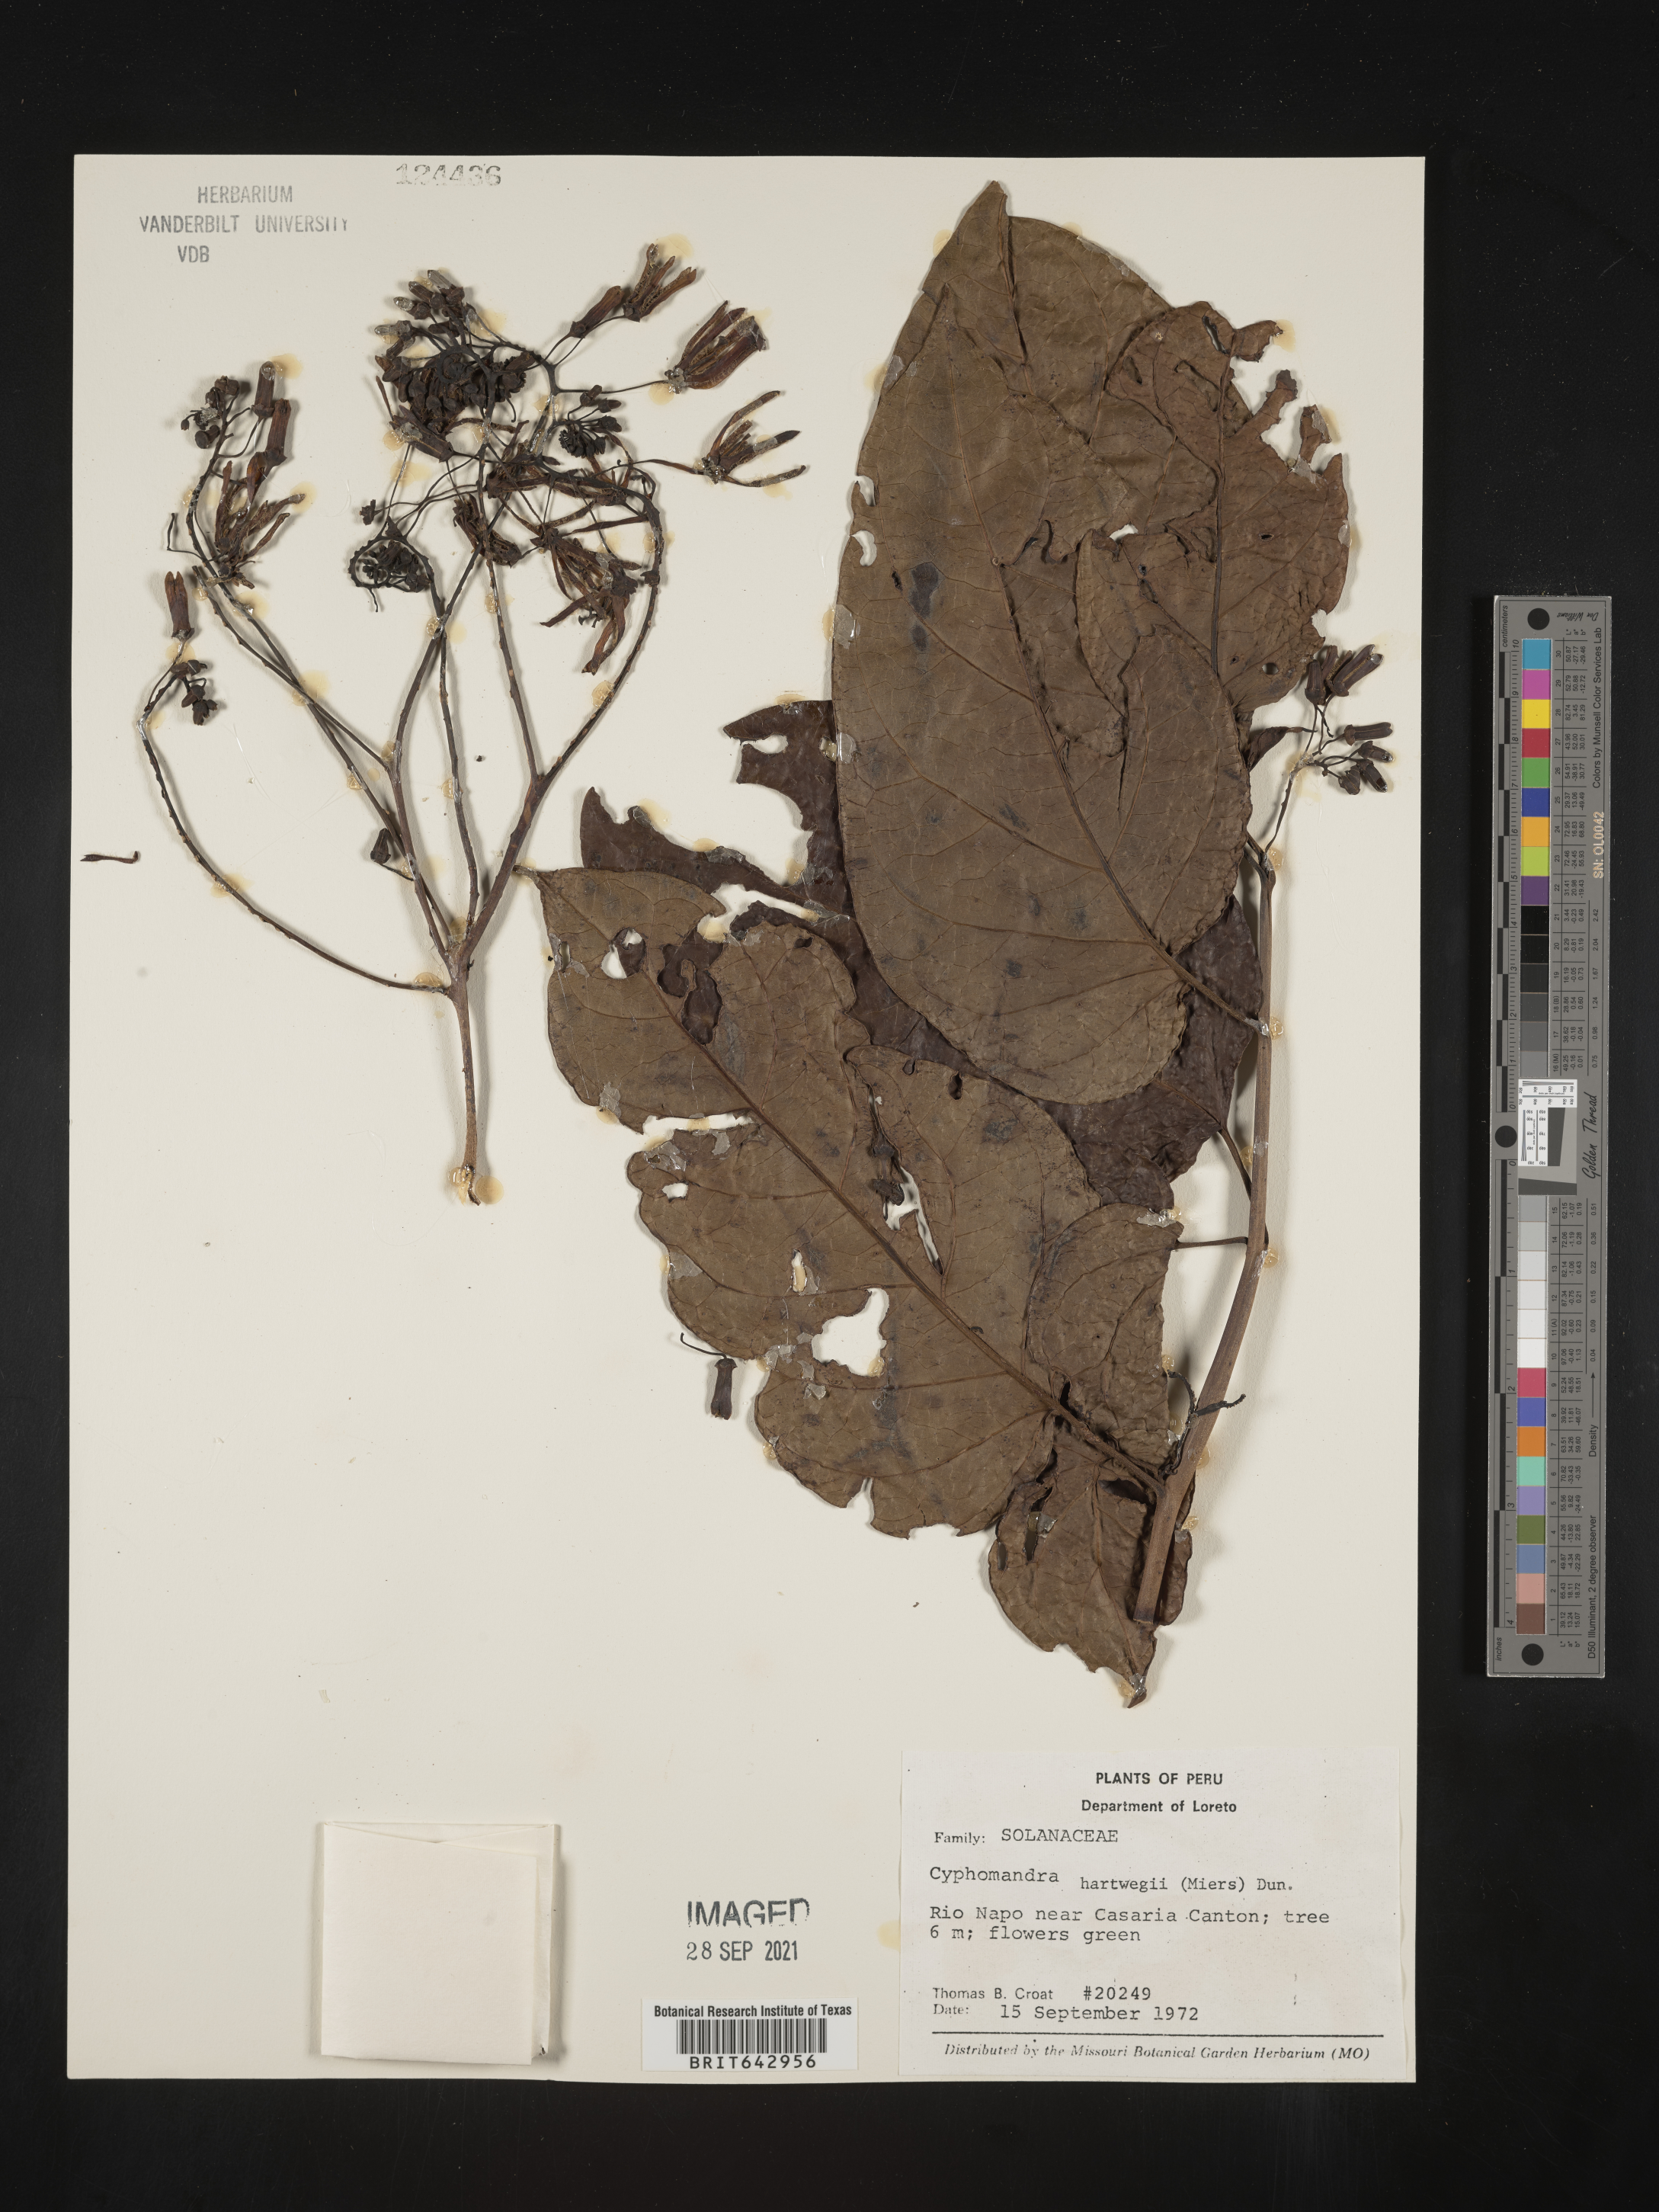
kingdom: Plantae
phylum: Tracheophyta
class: Magnoliopsida
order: Solanales
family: Solanaceae
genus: Solanum
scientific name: Solanum
